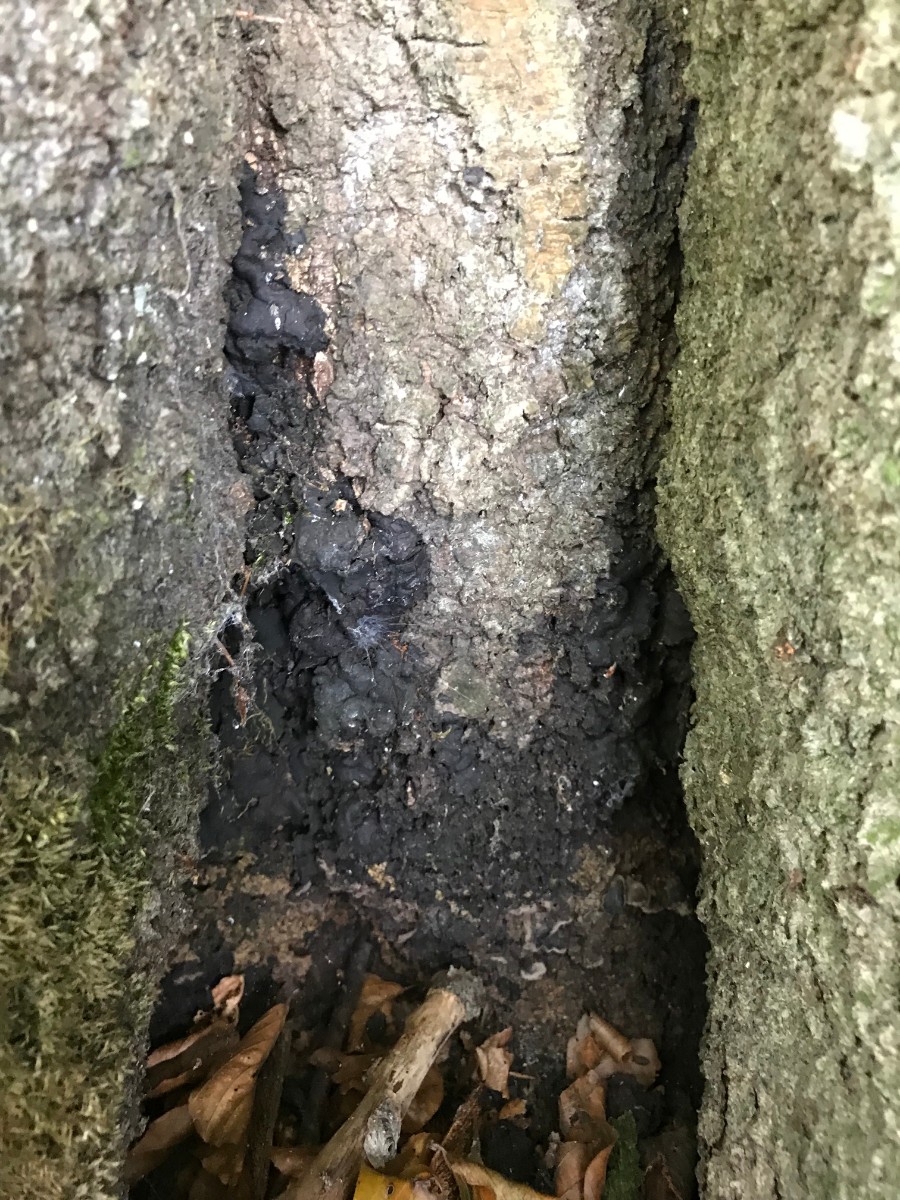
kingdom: Fungi
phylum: Ascomycota
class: Sordariomycetes
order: Xylariales
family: Xylariaceae
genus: Kretzschmaria
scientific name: Kretzschmaria deusta
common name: stor kulsvamp
